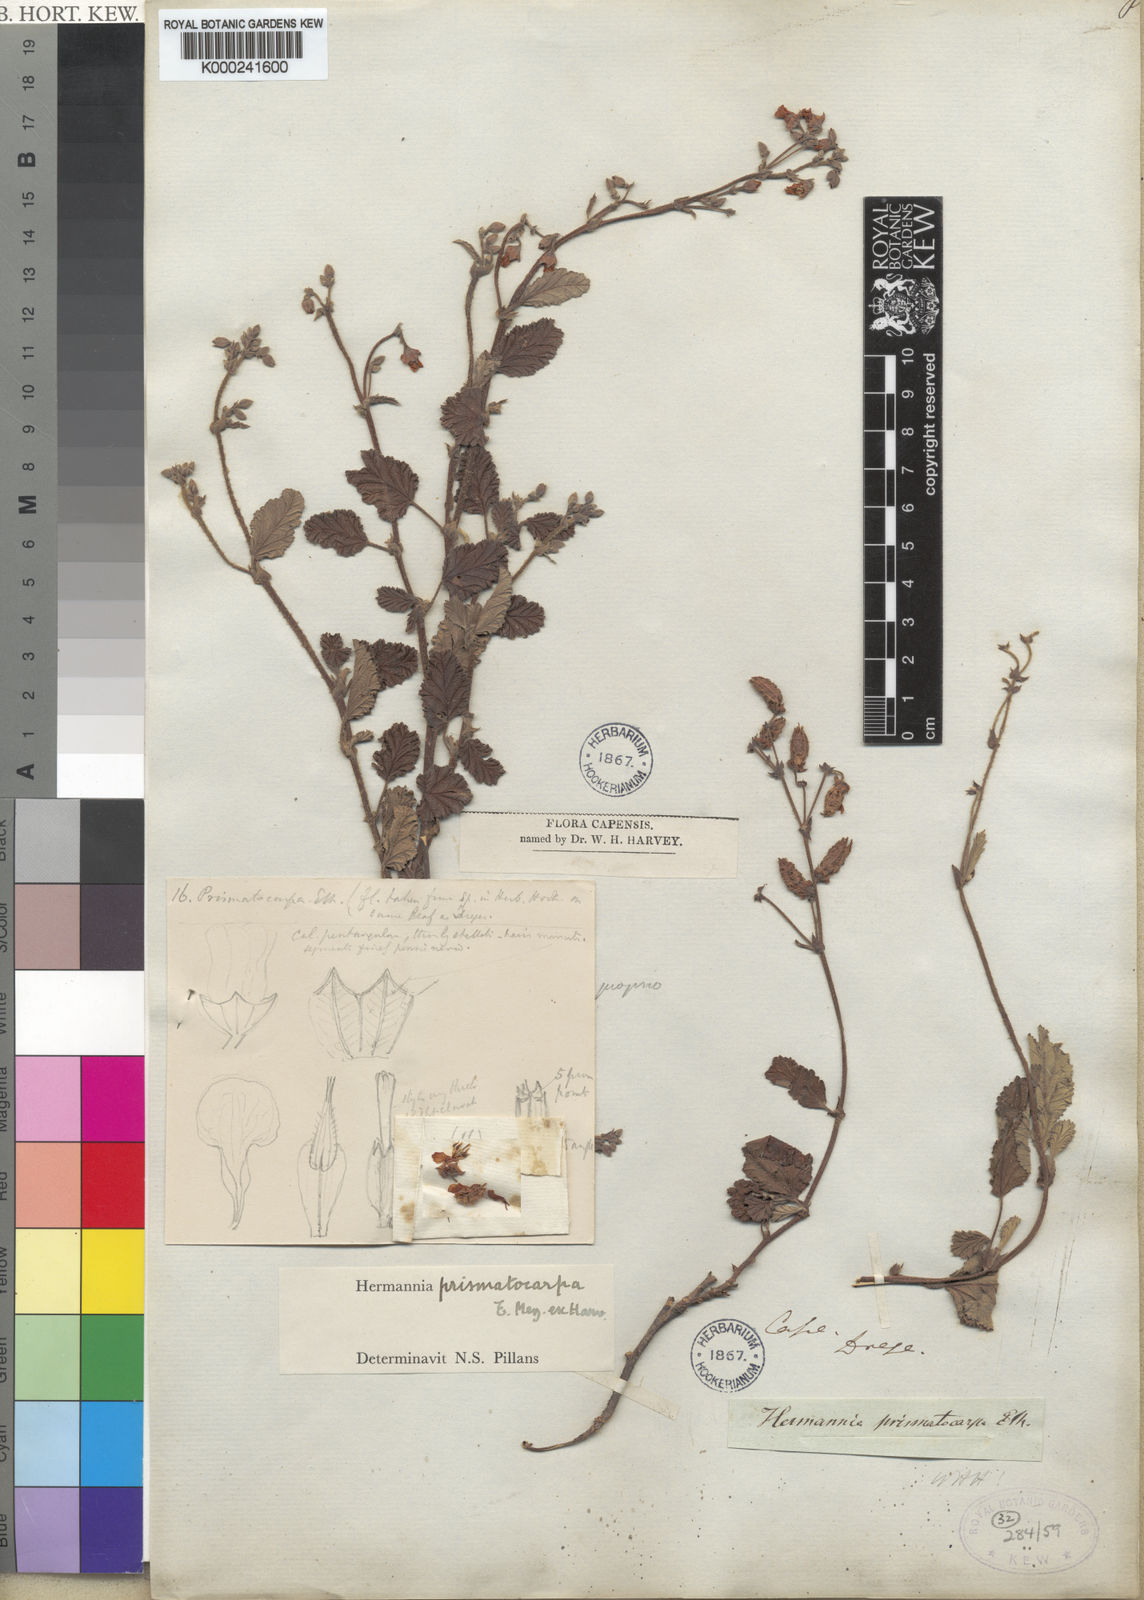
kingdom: Plantae
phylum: Tracheophyta
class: Magnoliopsida
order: Malvales
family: Malvaceae
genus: Hermannia
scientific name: Hermannia prismatocarpa
